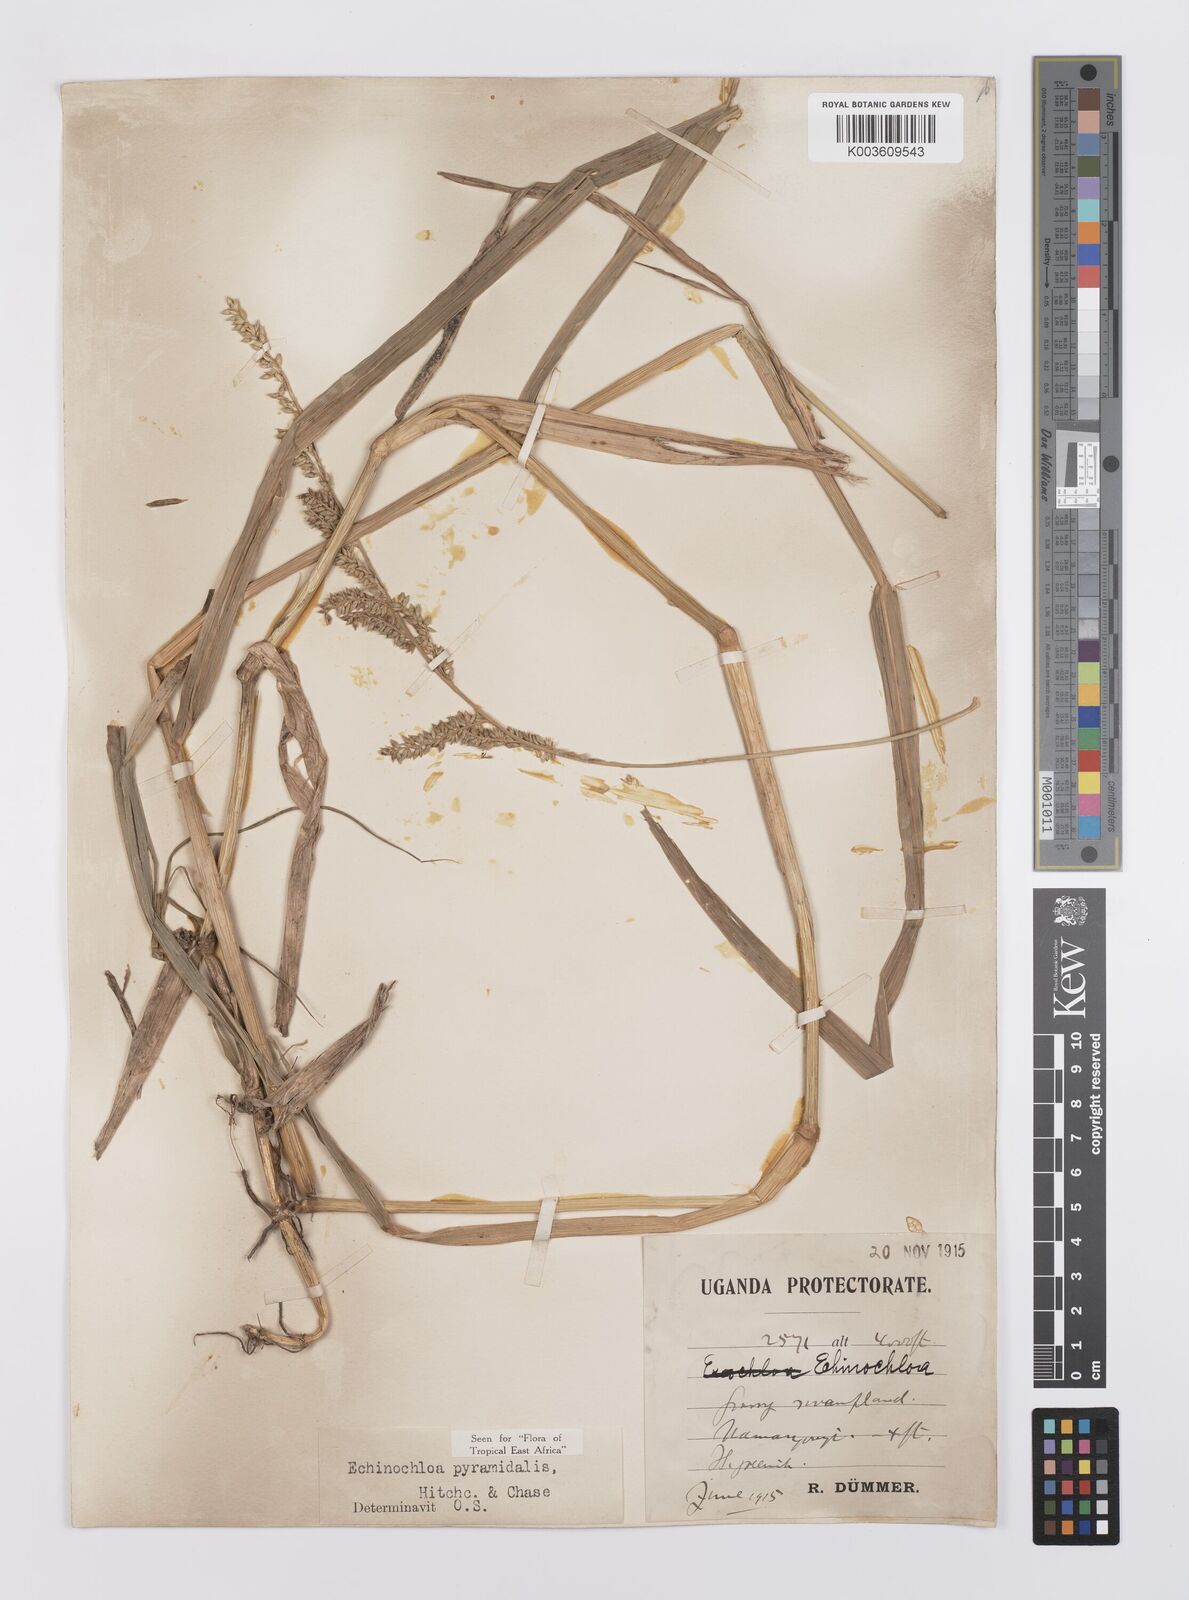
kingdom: Plantae
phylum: Tracheophyta
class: Liliopsida
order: Poales
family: Poaceae
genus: Echinochloa
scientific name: Echinochloa pyramidalis
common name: Antelope grass
